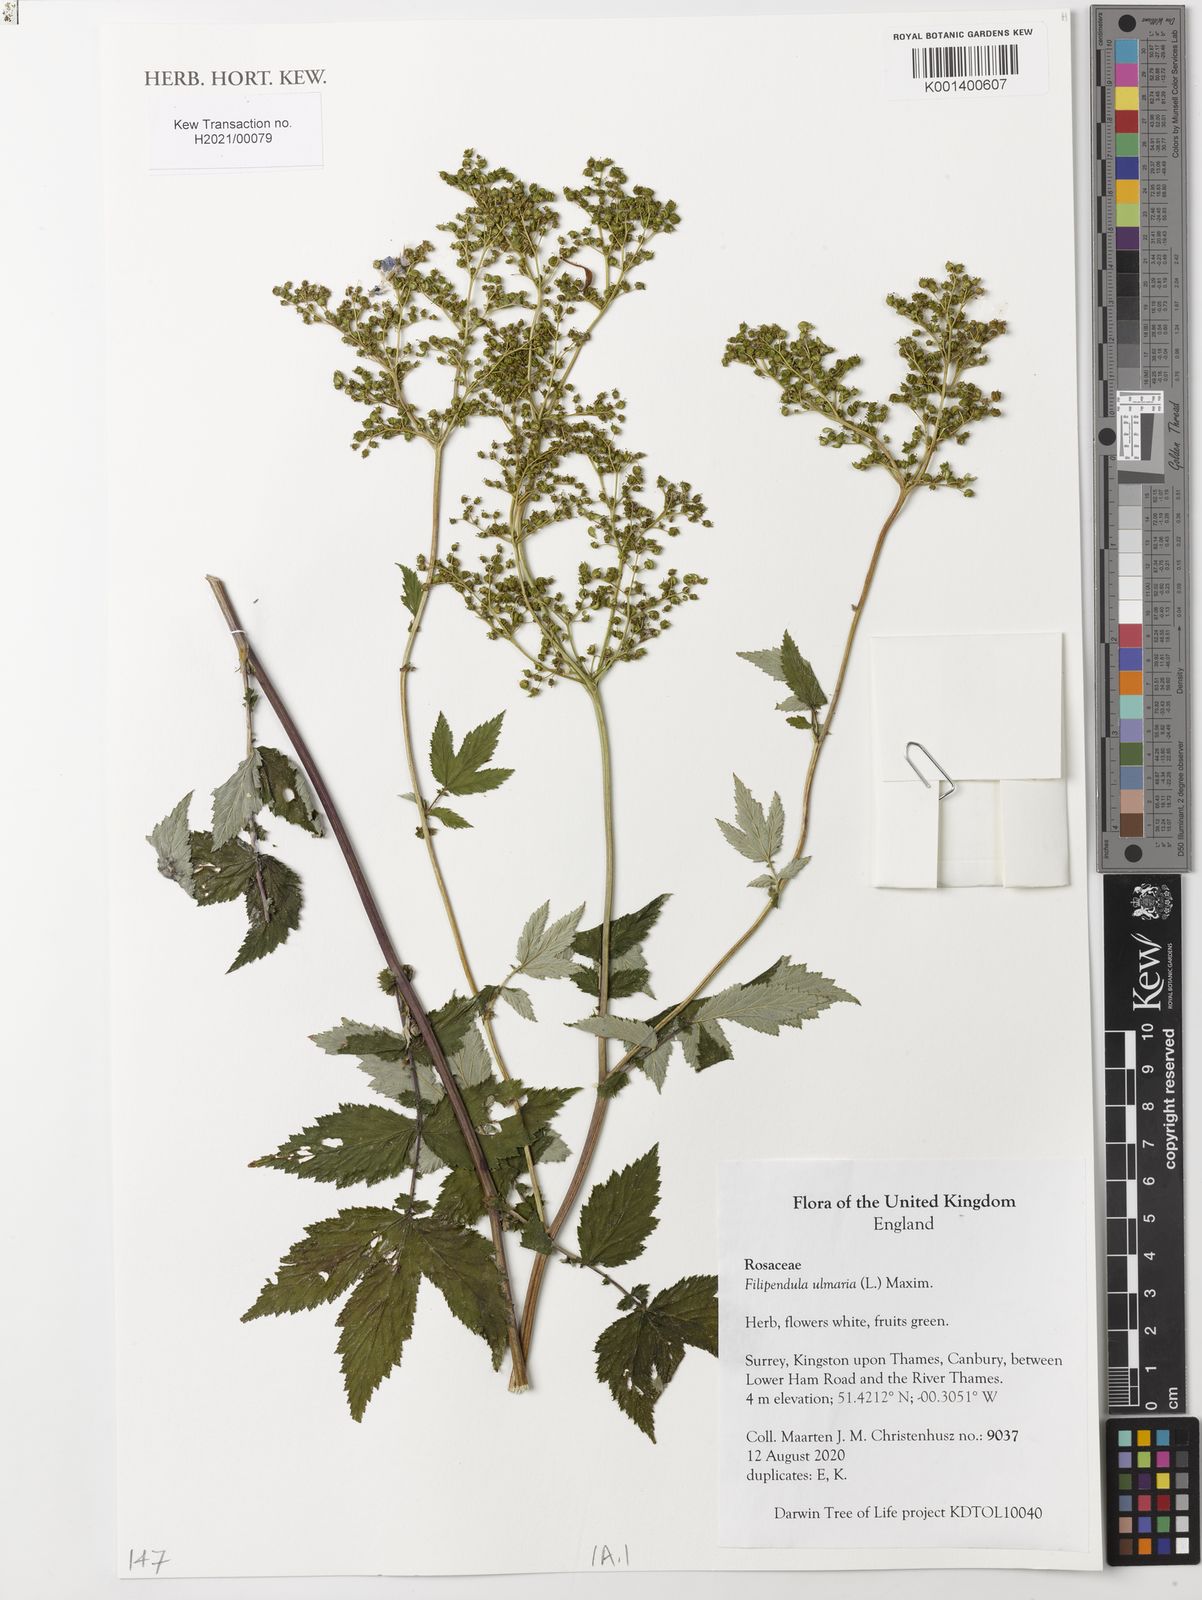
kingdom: Plantae
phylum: Tracheophyta
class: Magnoliopsida
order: Rosales
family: Rosaceae
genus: Filipendula
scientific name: Filipendula ulmaria
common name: Meadowsweet
